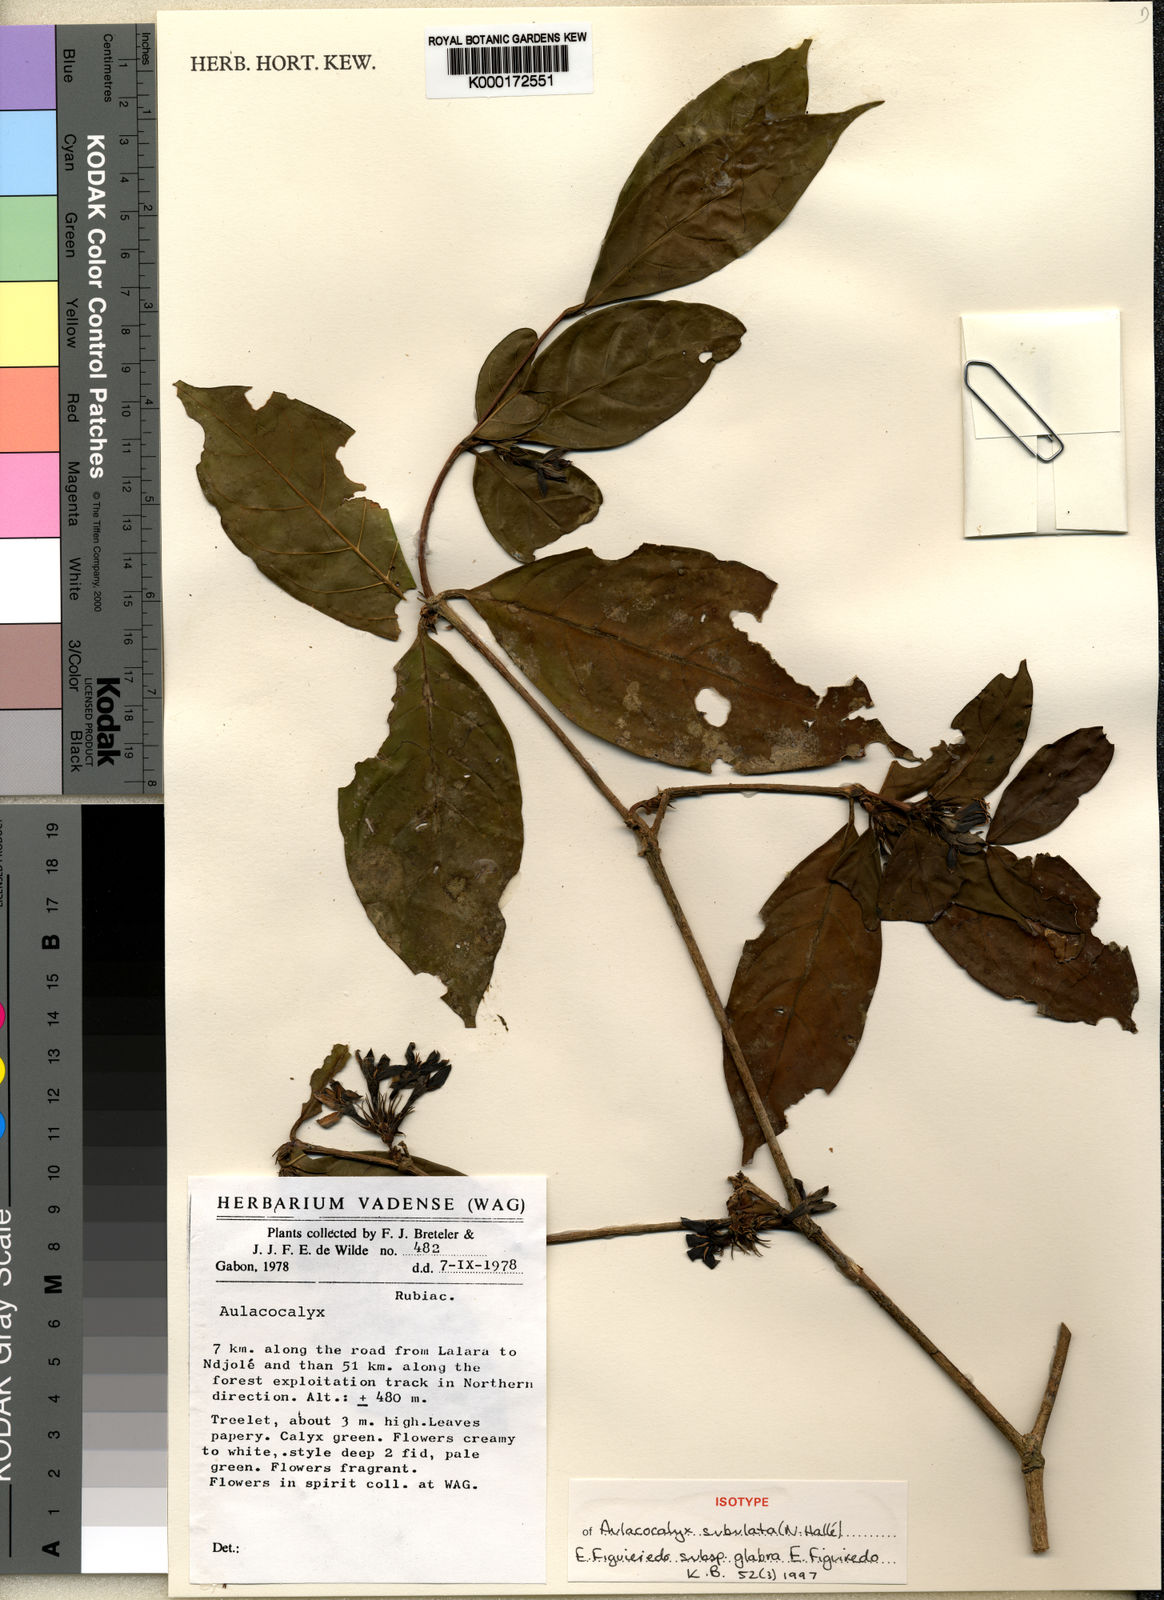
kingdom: Plantae
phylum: Tracheophyta
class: Magnoliopsida
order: Gentianales
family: Rubiaceae
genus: Aulacocalyx
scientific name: Aulacocalyx
